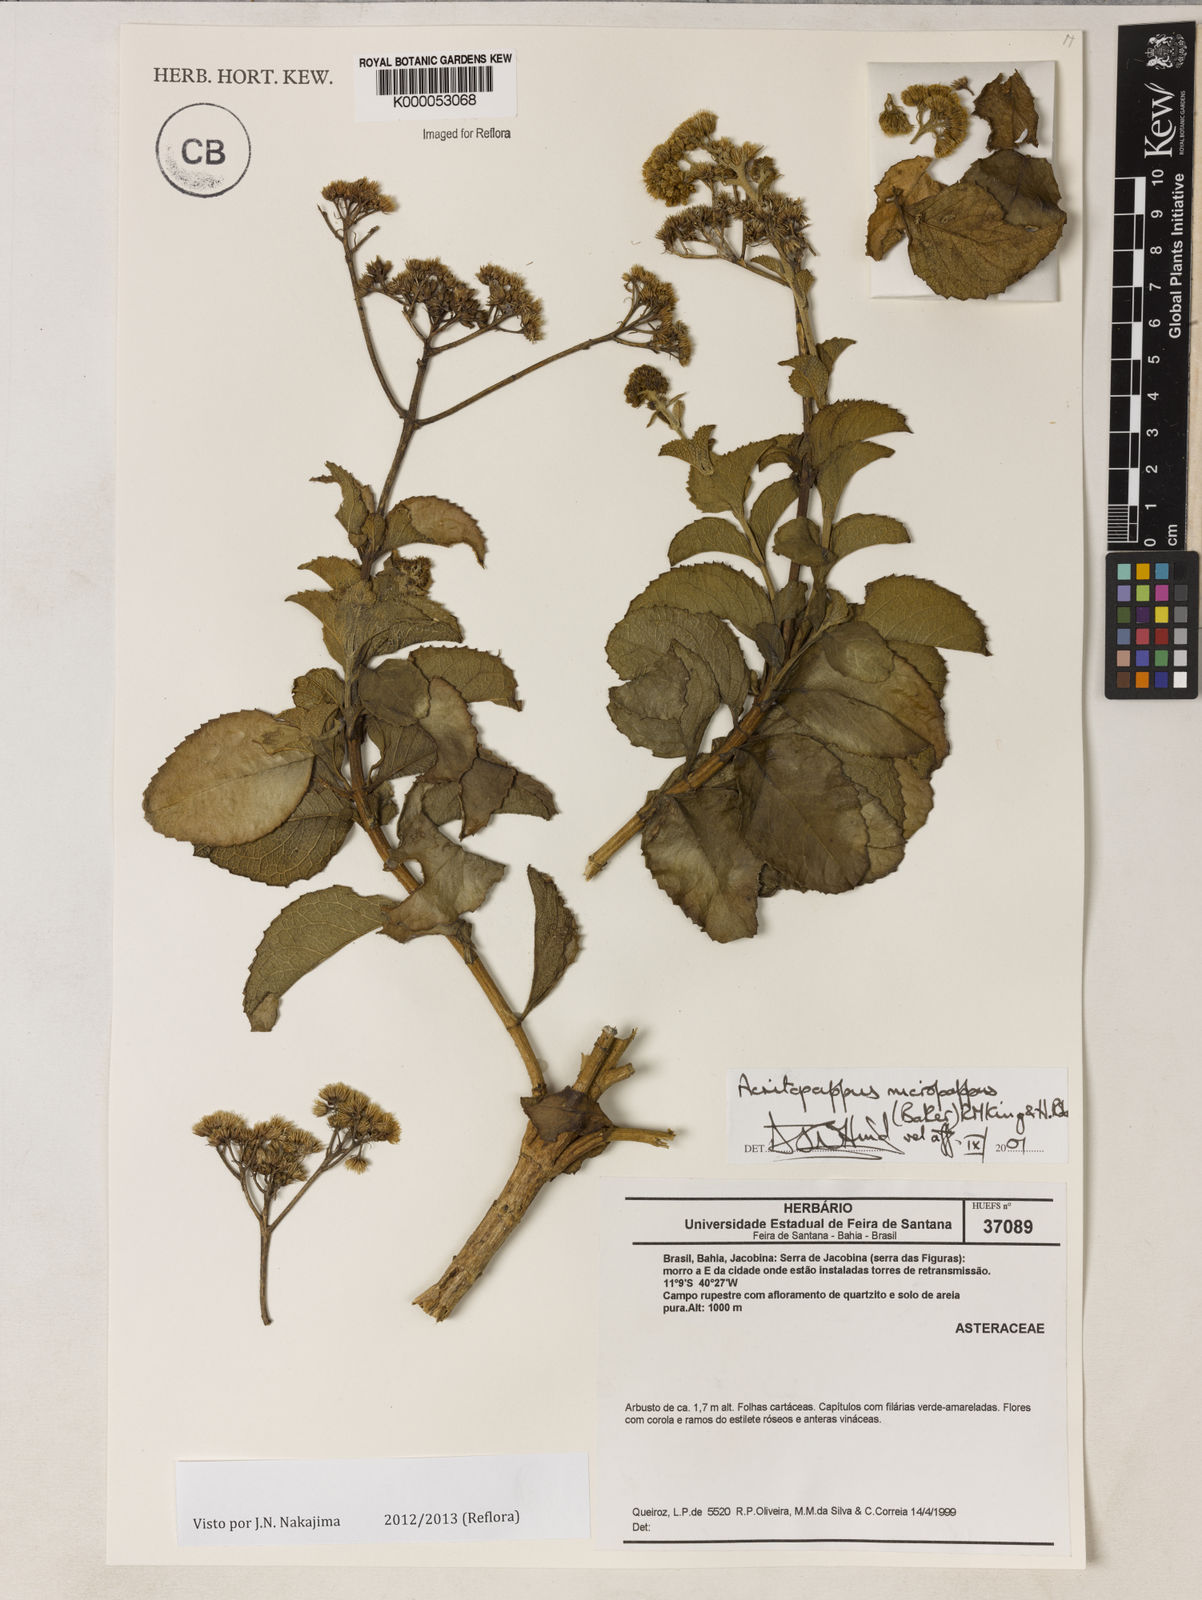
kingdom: Plantae
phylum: Tracheophyta
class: Magnoliopsida
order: Asterales
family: Asteraceae
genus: Acritopappus
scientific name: Acritopappus micropappus
